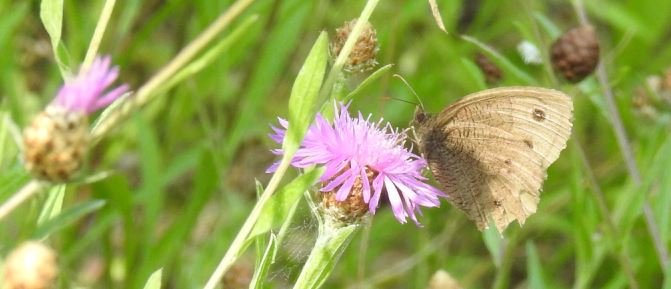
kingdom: Animalia
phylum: Arthropoda
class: Insecta
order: Lepidoptera
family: Nymphalidae
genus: Cercyonis
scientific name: Cercyonis pegala
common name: Common Wood-Nymph
